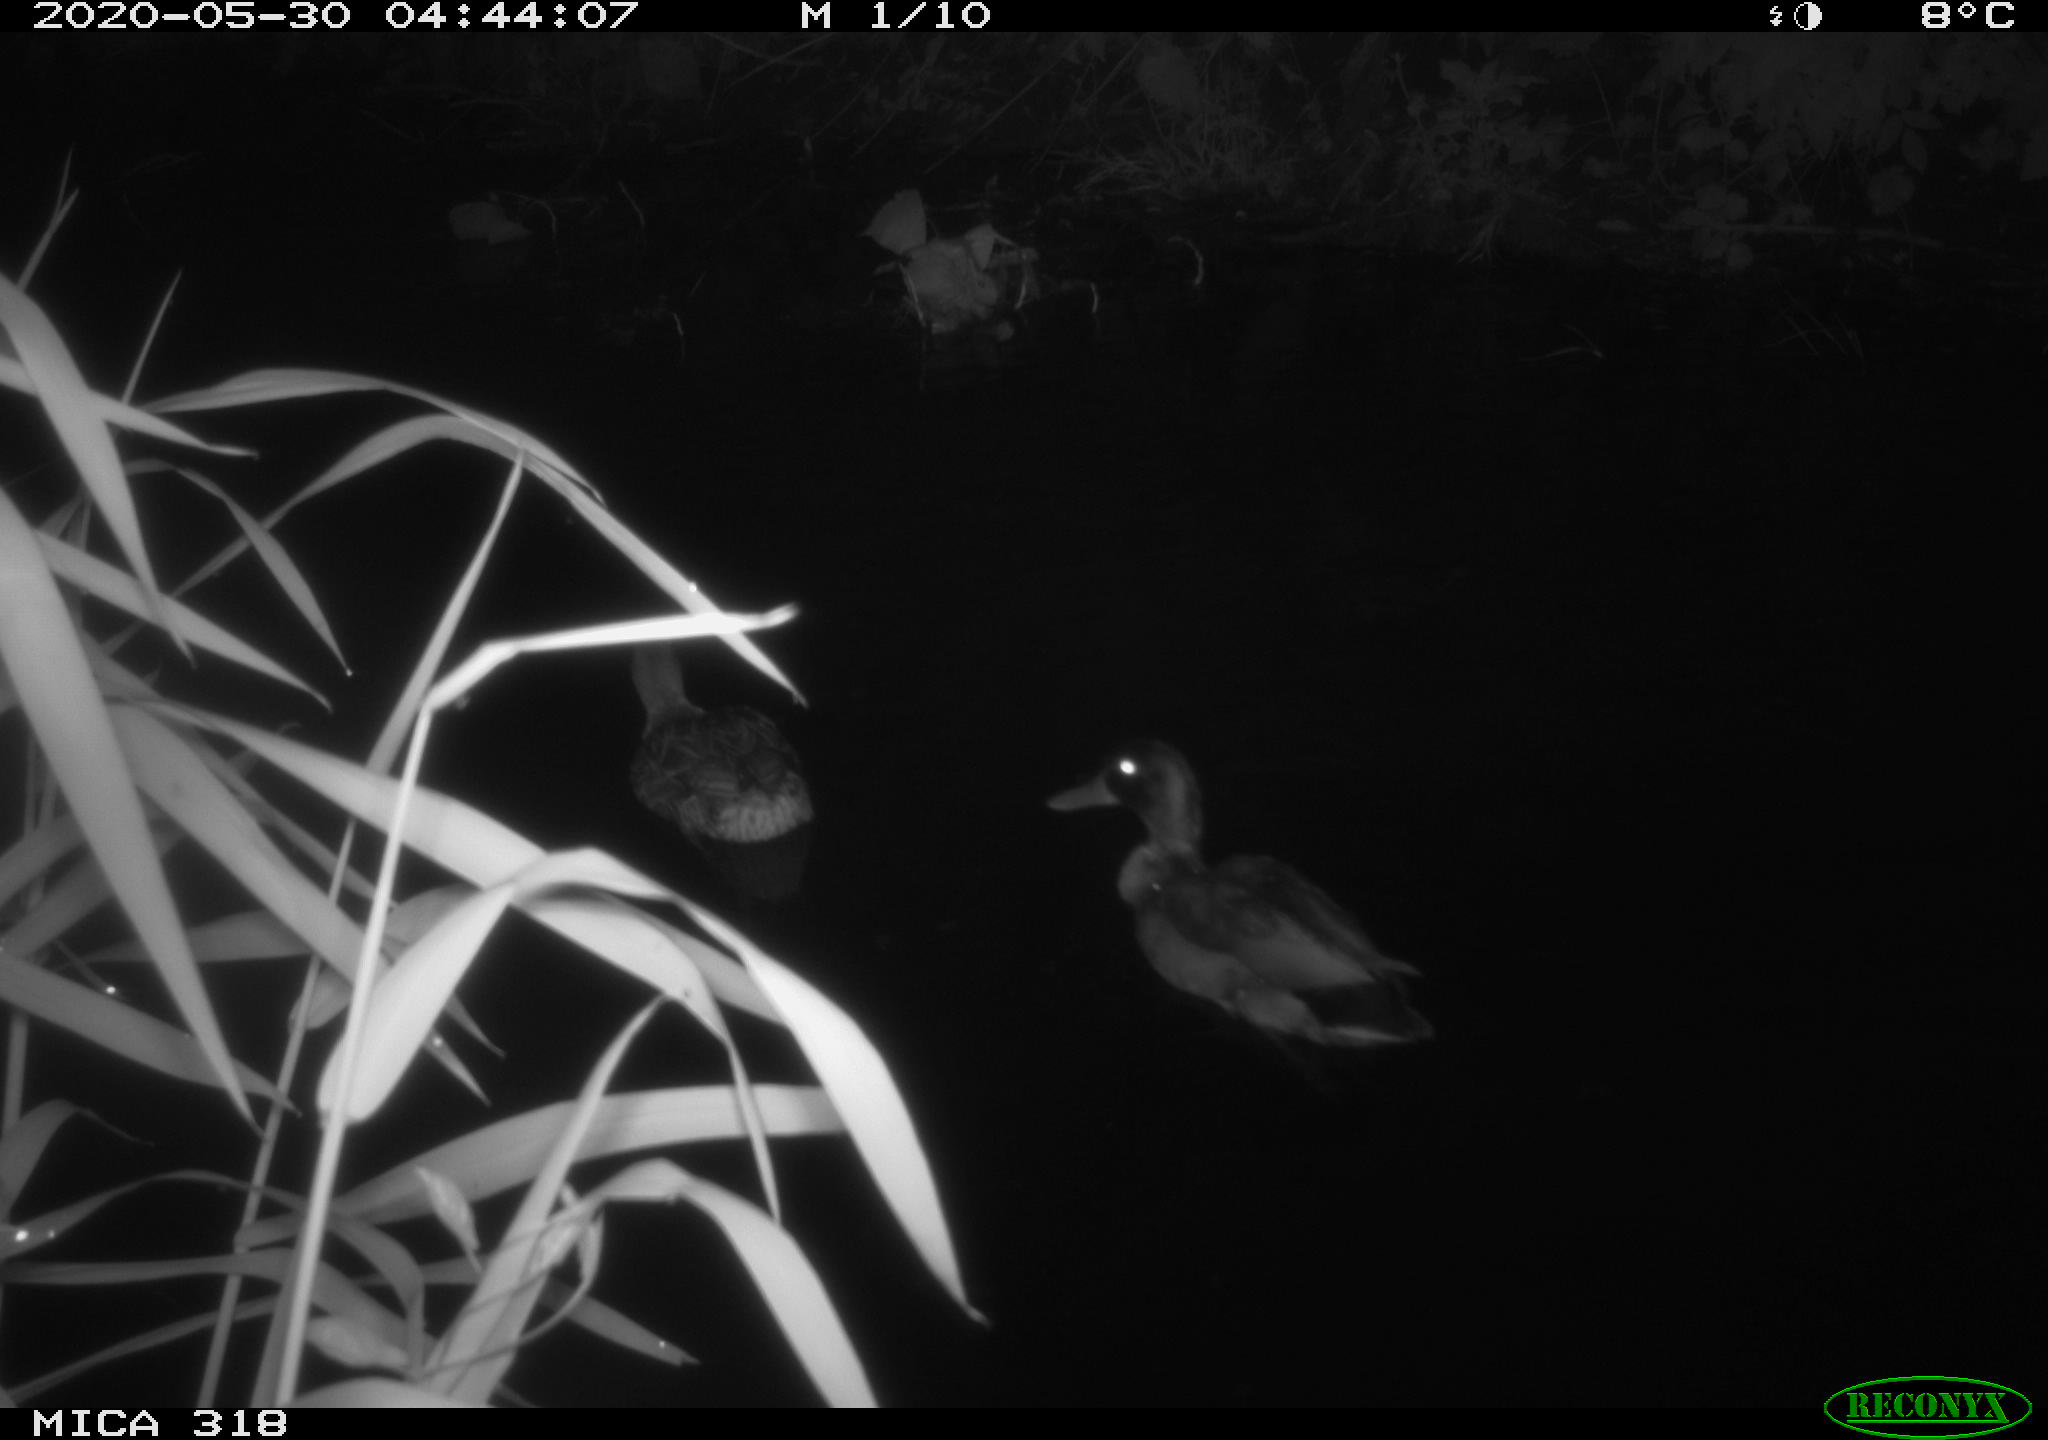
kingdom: Animalia
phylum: Chordata
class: Aves
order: Anseriformes
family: Anatidae
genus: Anas
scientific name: Anas platyrhynchos
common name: Mallard
